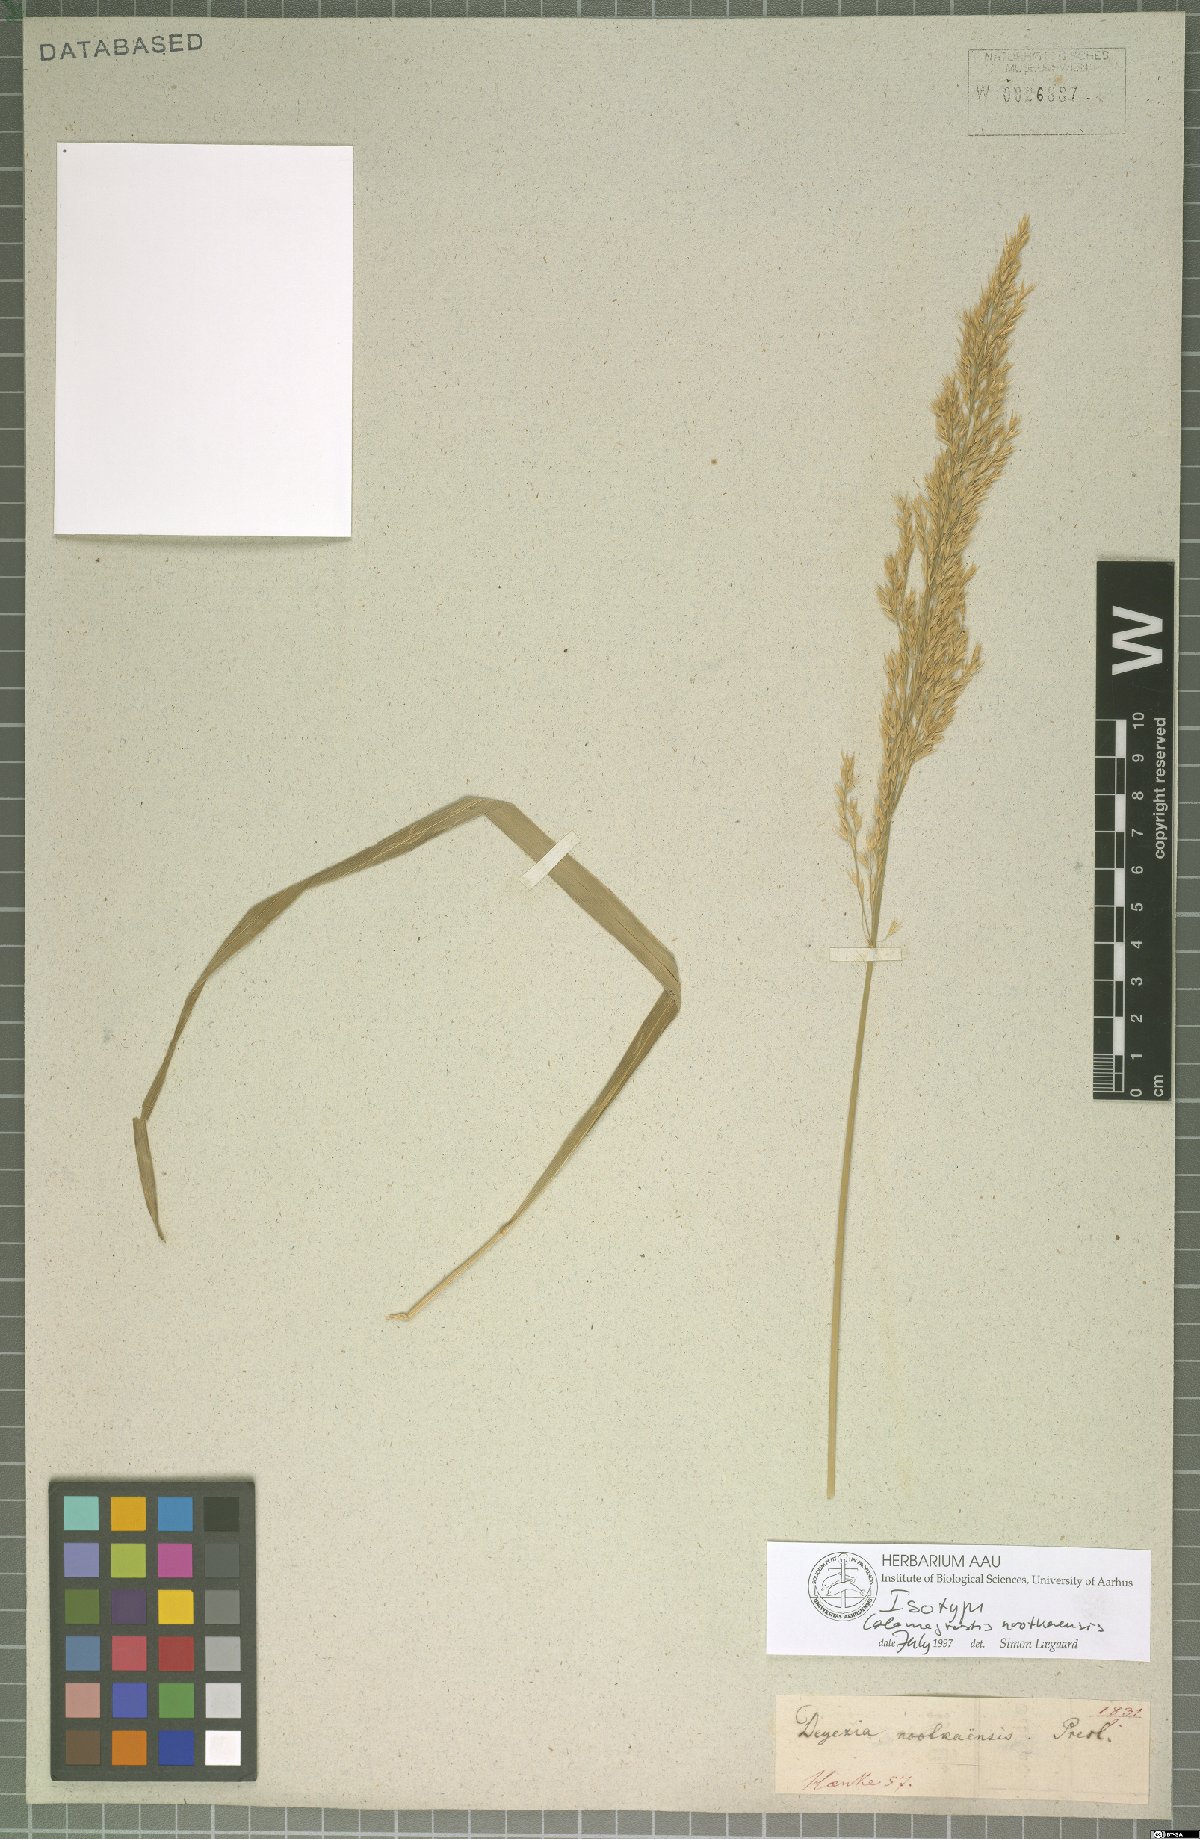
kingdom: Plantae
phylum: Tracheophyta
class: Liliopsida
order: Poales
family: Poaceae
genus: Calamagrostis
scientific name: Calamagrostis nutkaensis
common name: Pacific reed grass
